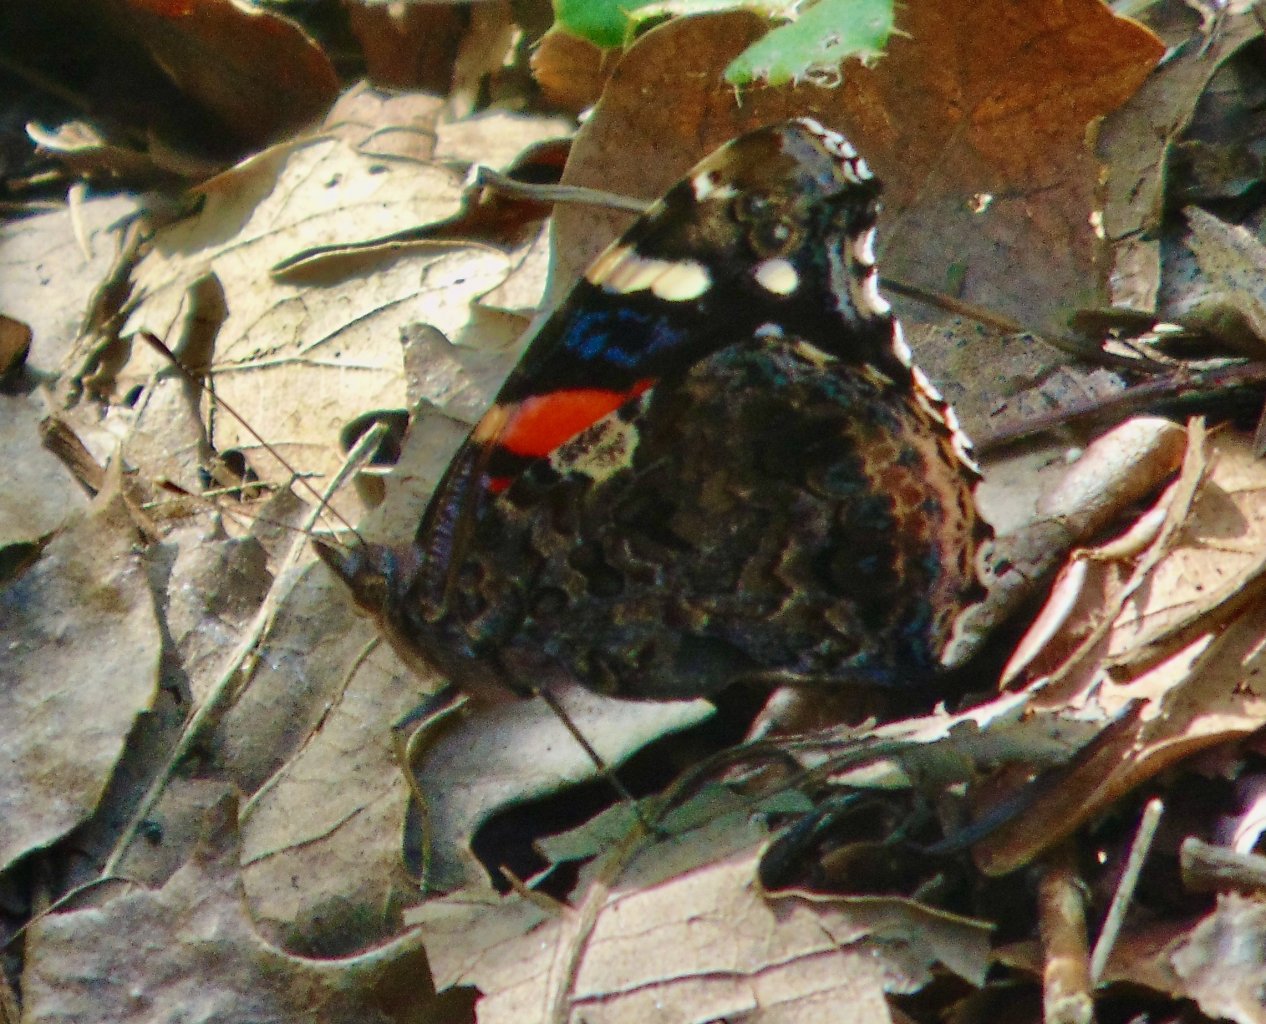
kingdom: Animalia
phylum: Arthropoda
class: Insecta
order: Lepidoptera
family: Nymphalidae
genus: Vanessa
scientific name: Vanessa atalanta
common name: Red Admiral
